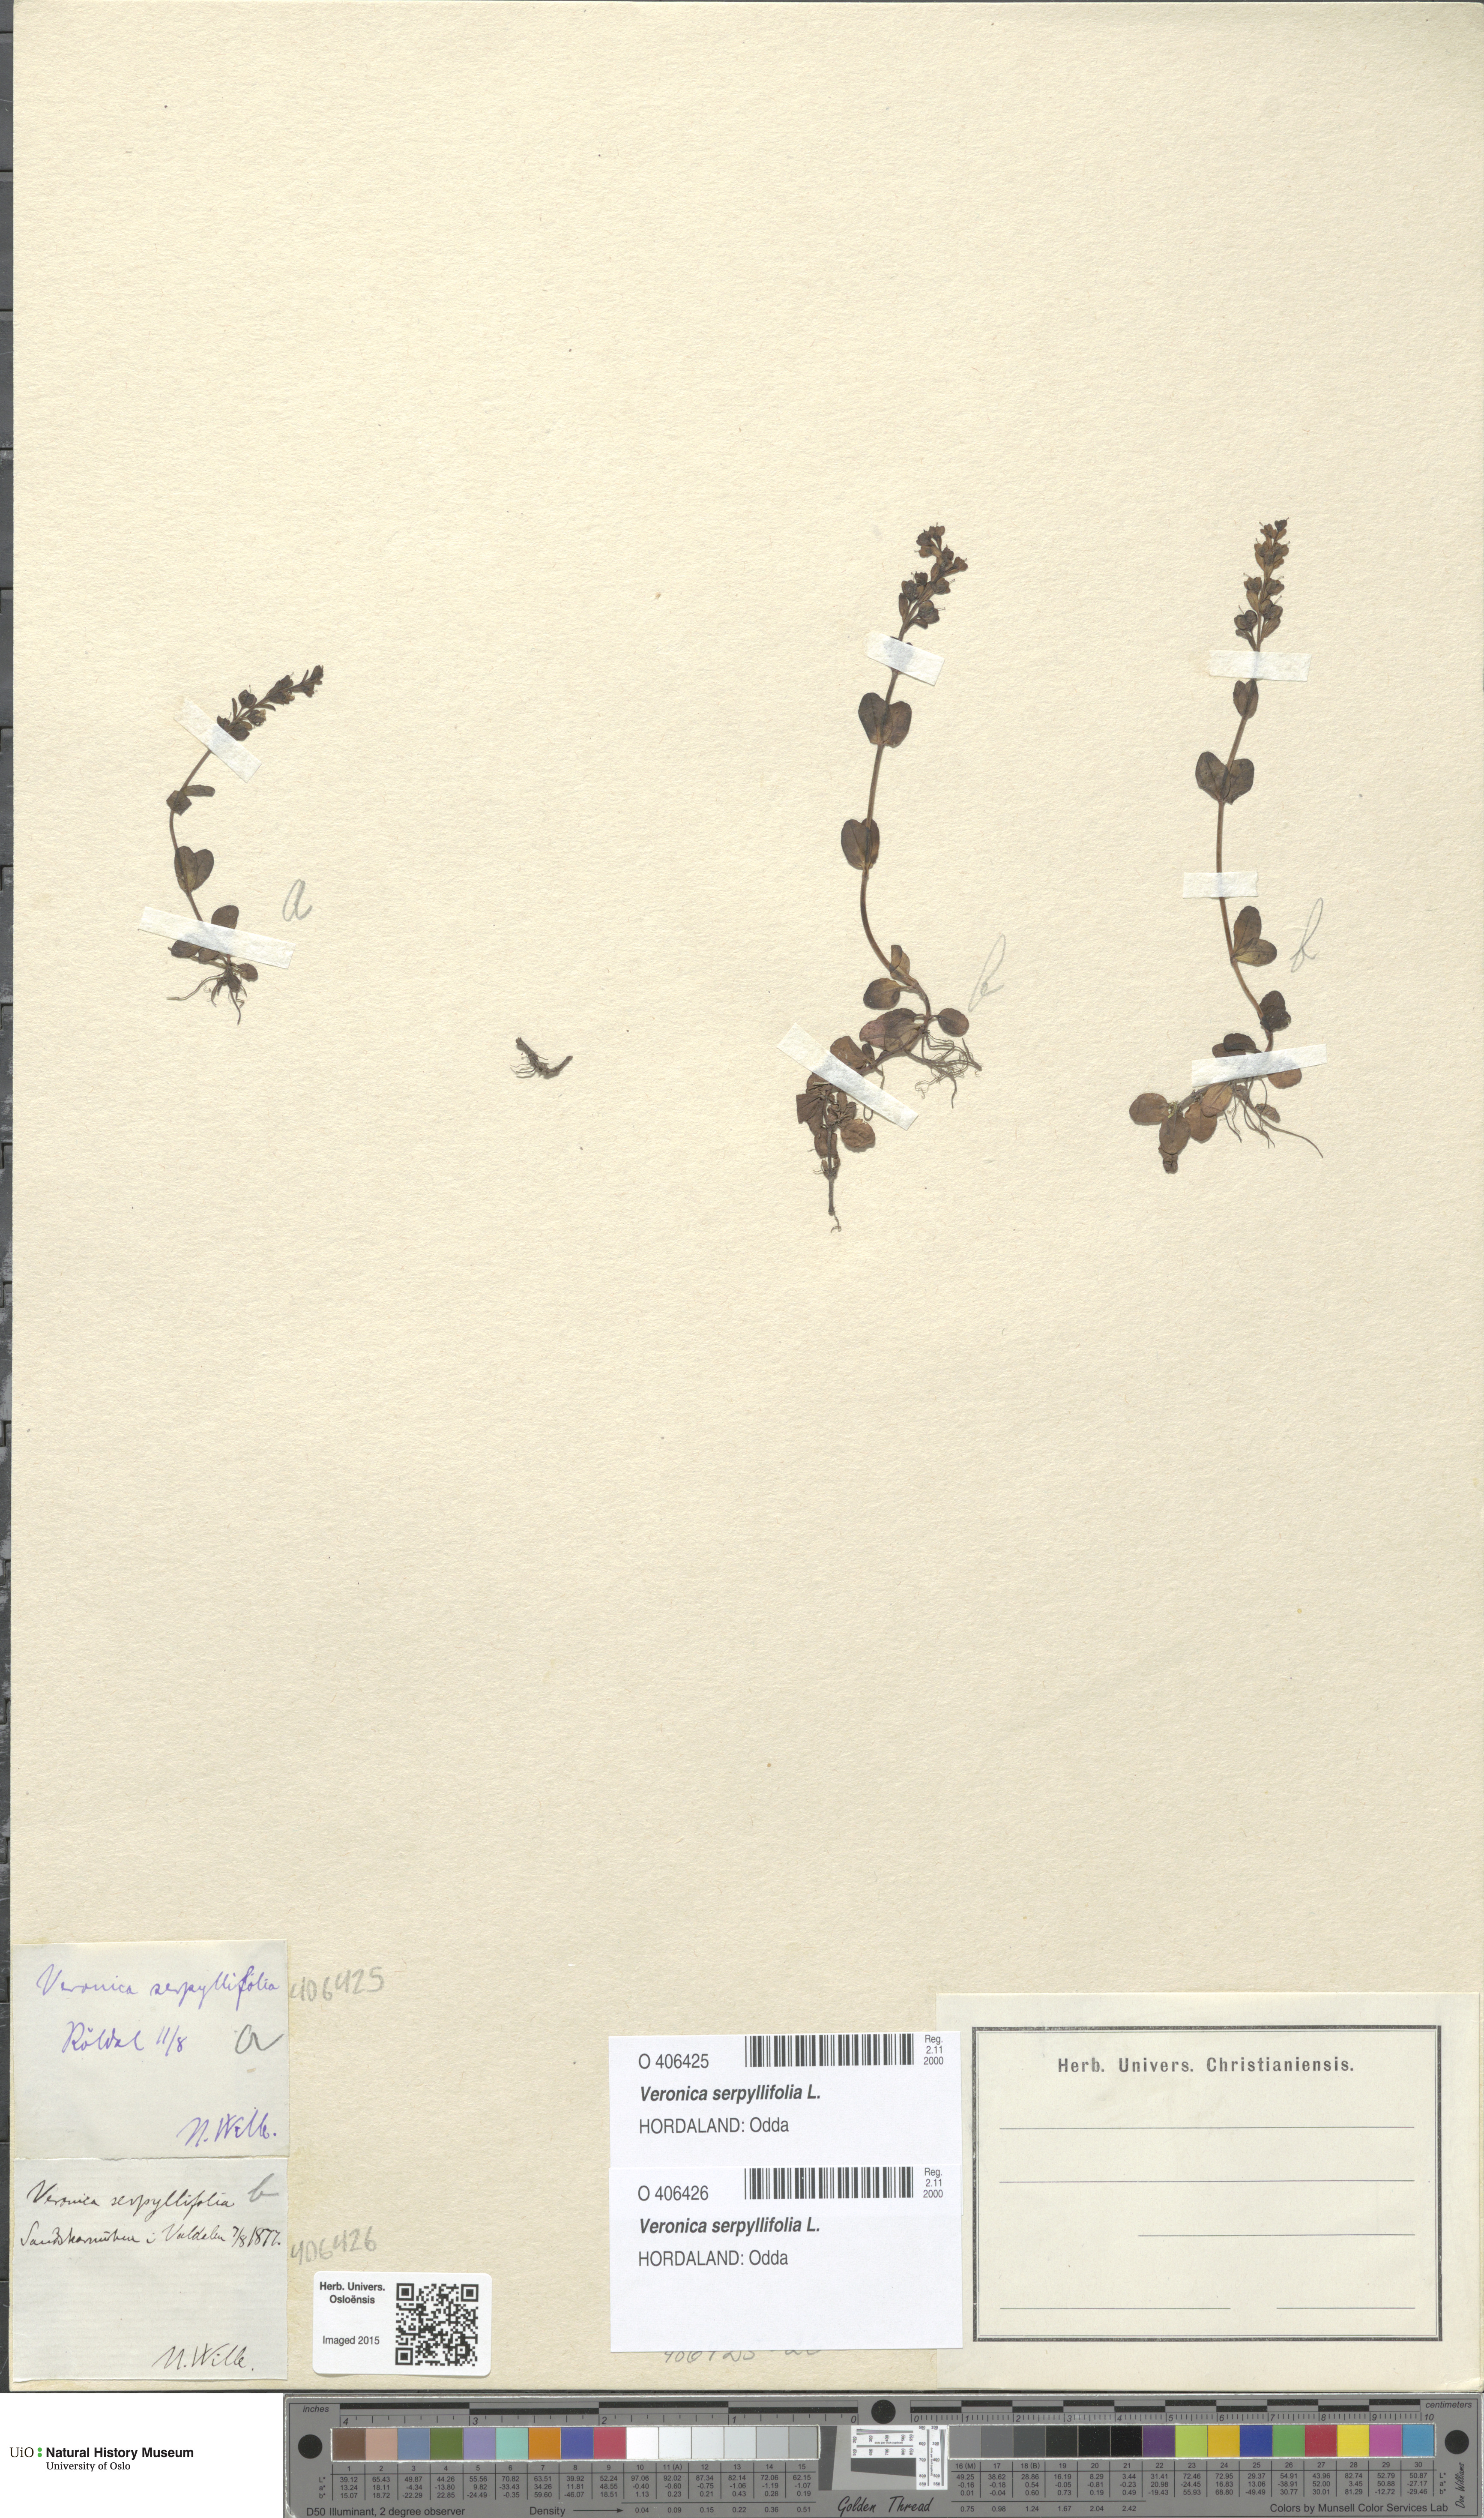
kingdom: Plantae
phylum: Tracheophyta
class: Magnoliopsida
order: Lamiales
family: Plantaginaceae
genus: Veronica
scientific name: Veronica serpyllifolia
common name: Thyme-leaved speedwell
